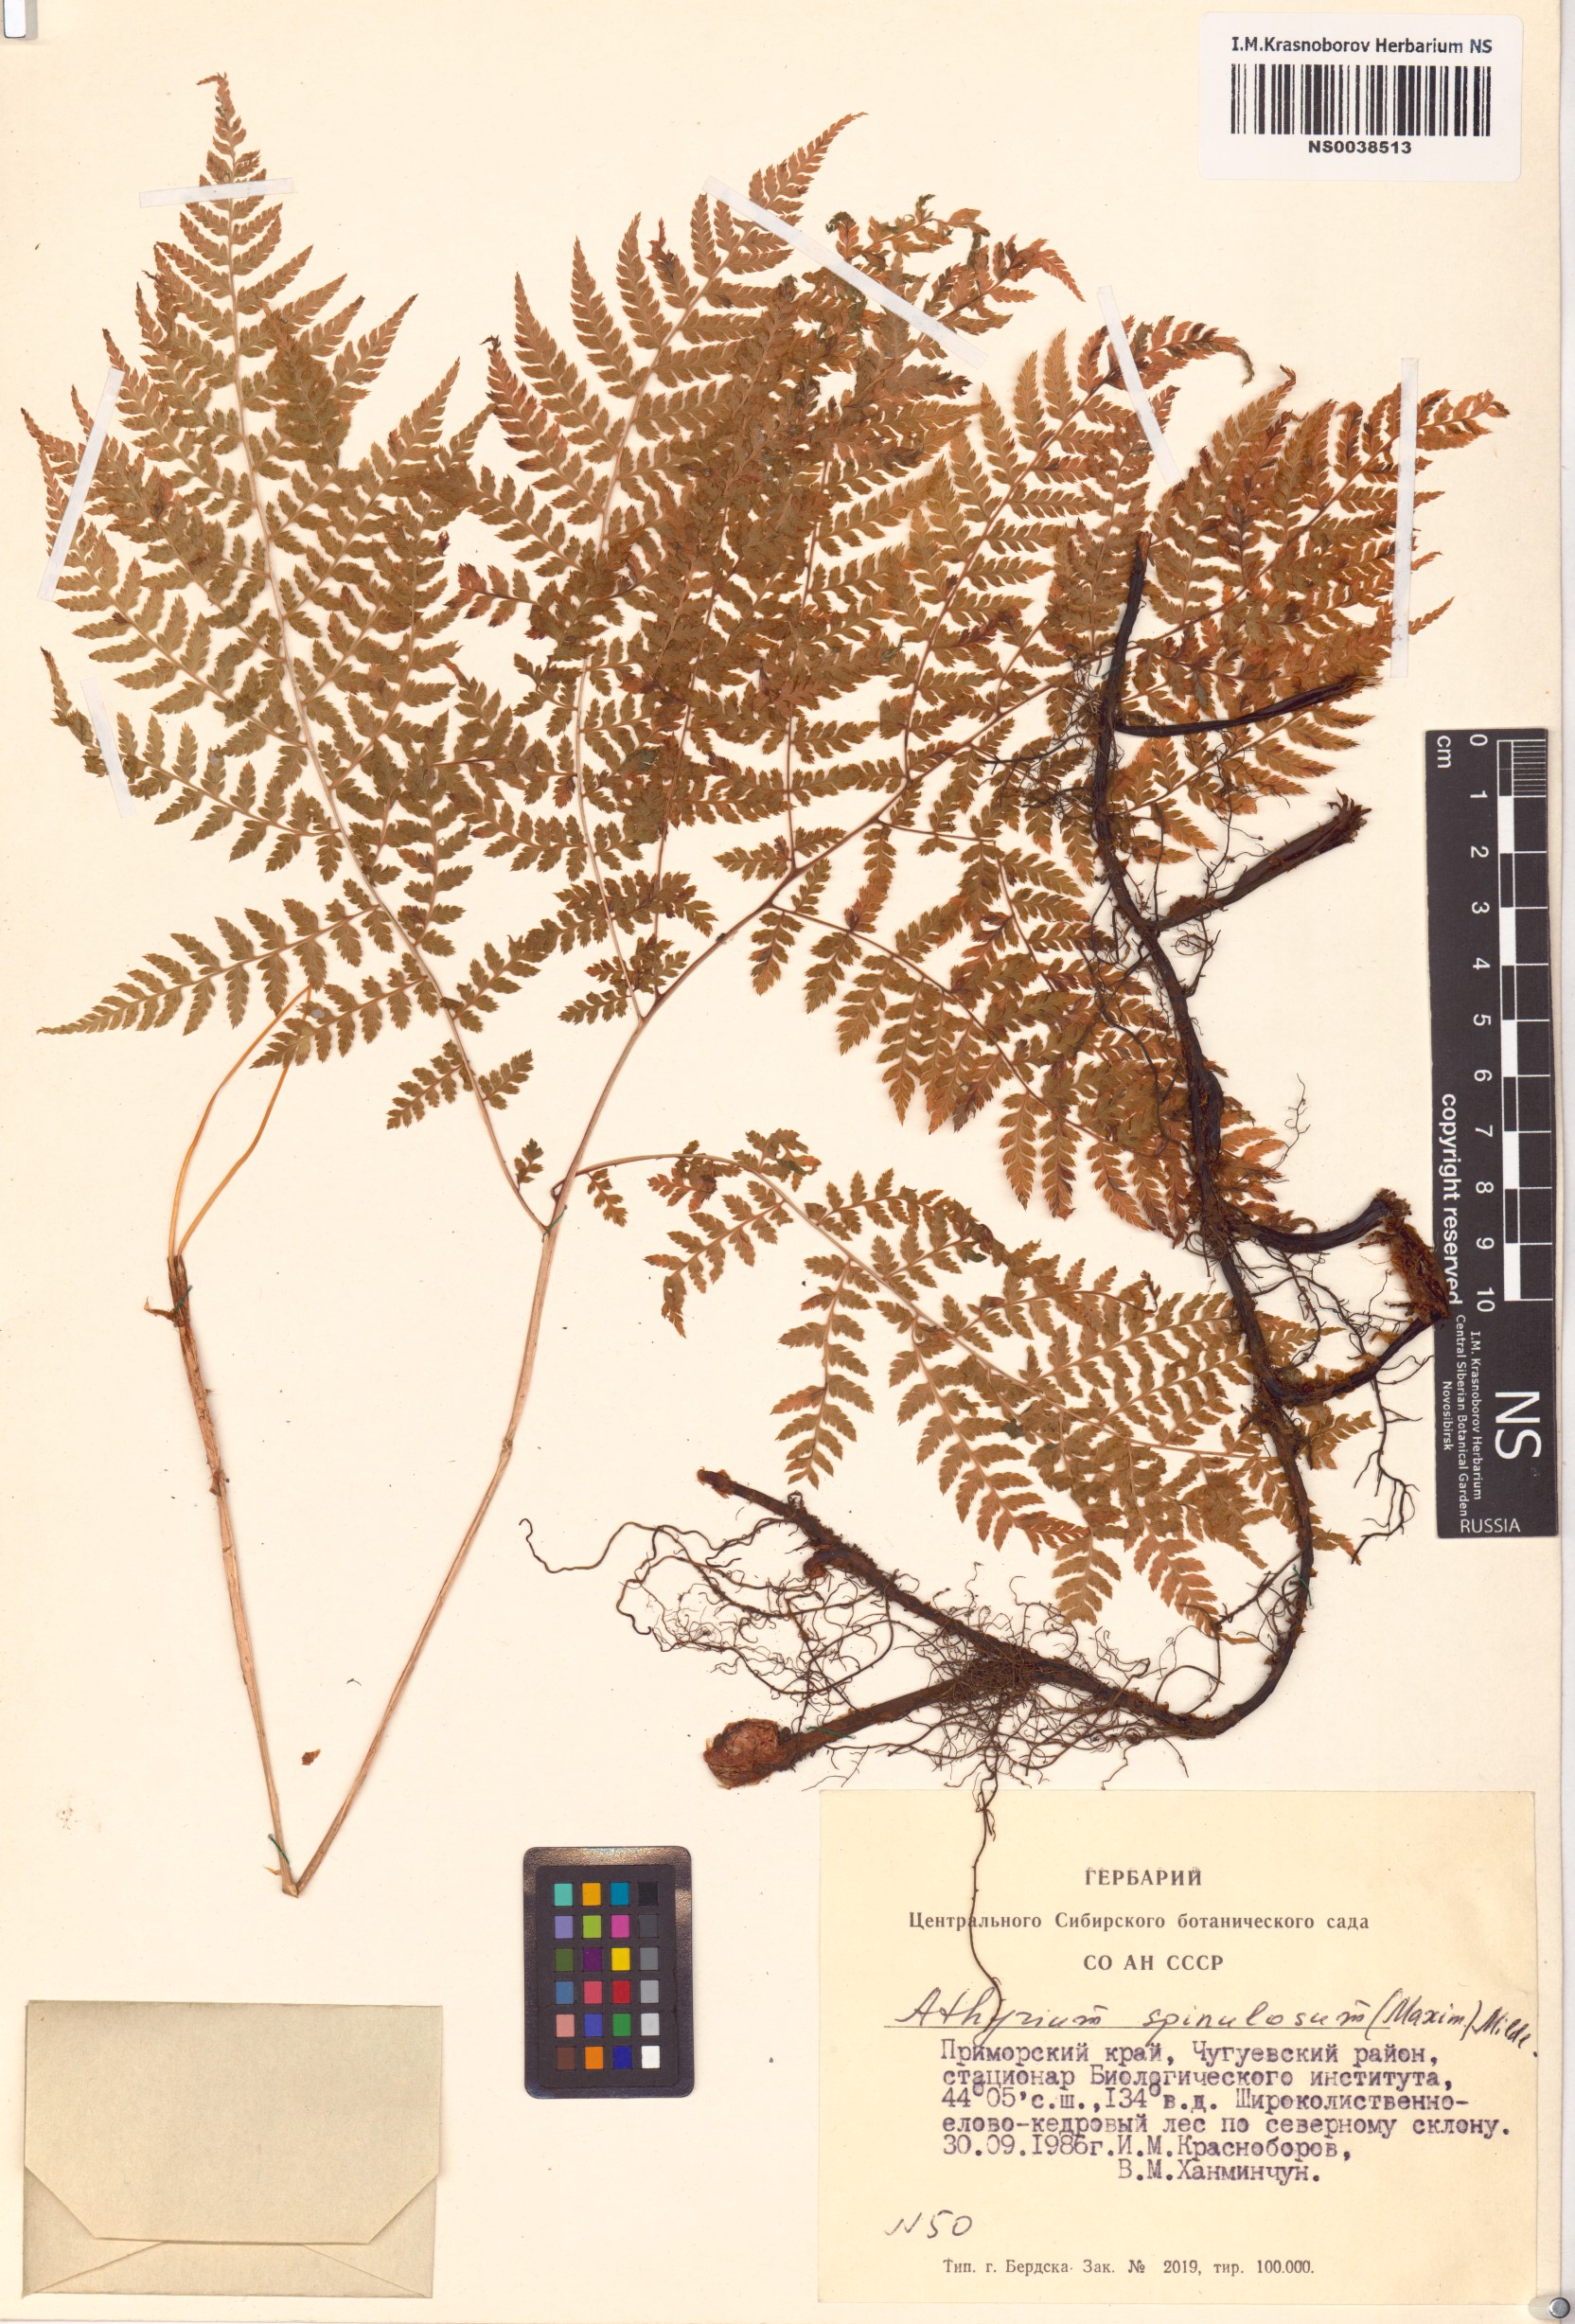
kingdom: Plantae
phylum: Tracheophyta
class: Polypodiopsida
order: Polypodiales
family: Athyriaceae
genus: Athyrium
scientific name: Athyrium spinulosum
